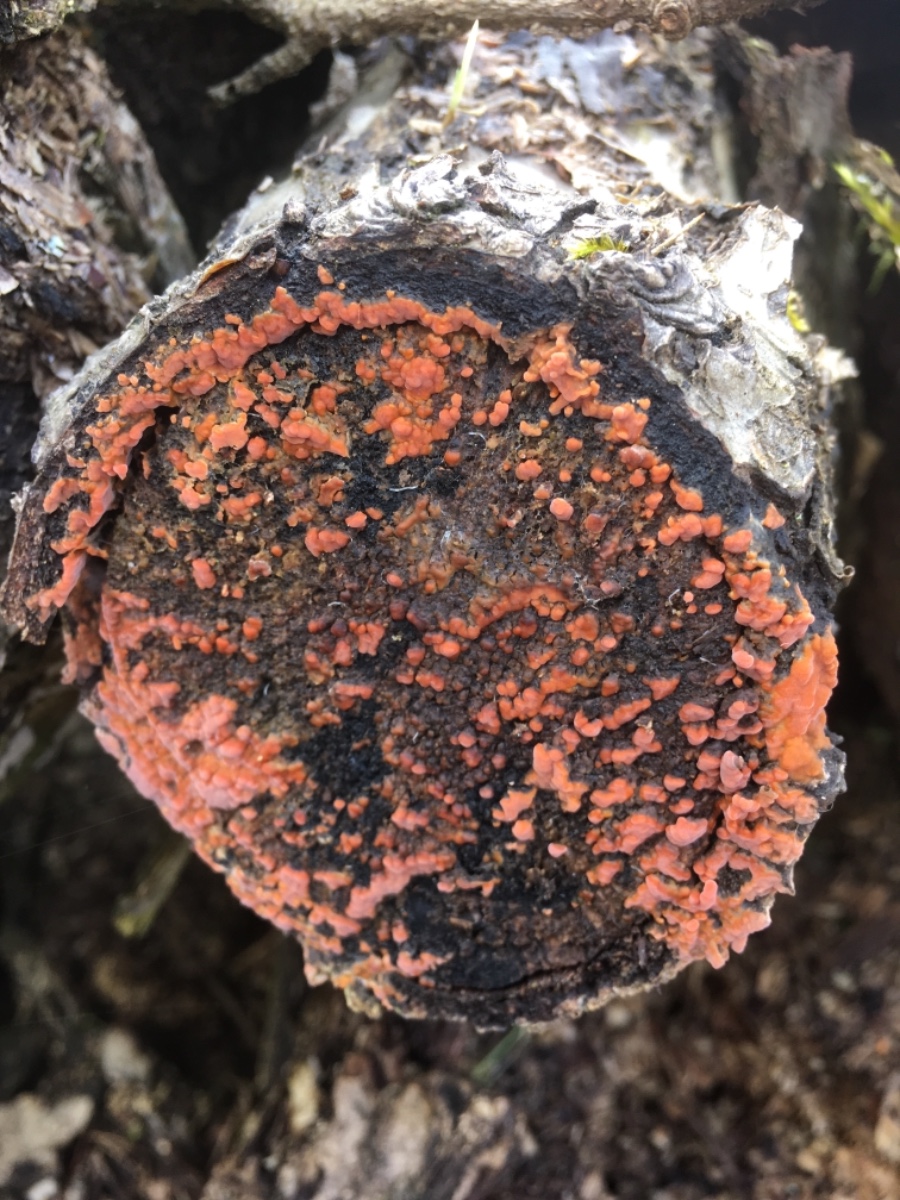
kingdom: Fungi
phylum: Basidiomycota
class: Agaricomycetes
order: Russulales
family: Peniophoraceae
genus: Peniophora
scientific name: Peniophora incarnata
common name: laksefarvet voksskind
